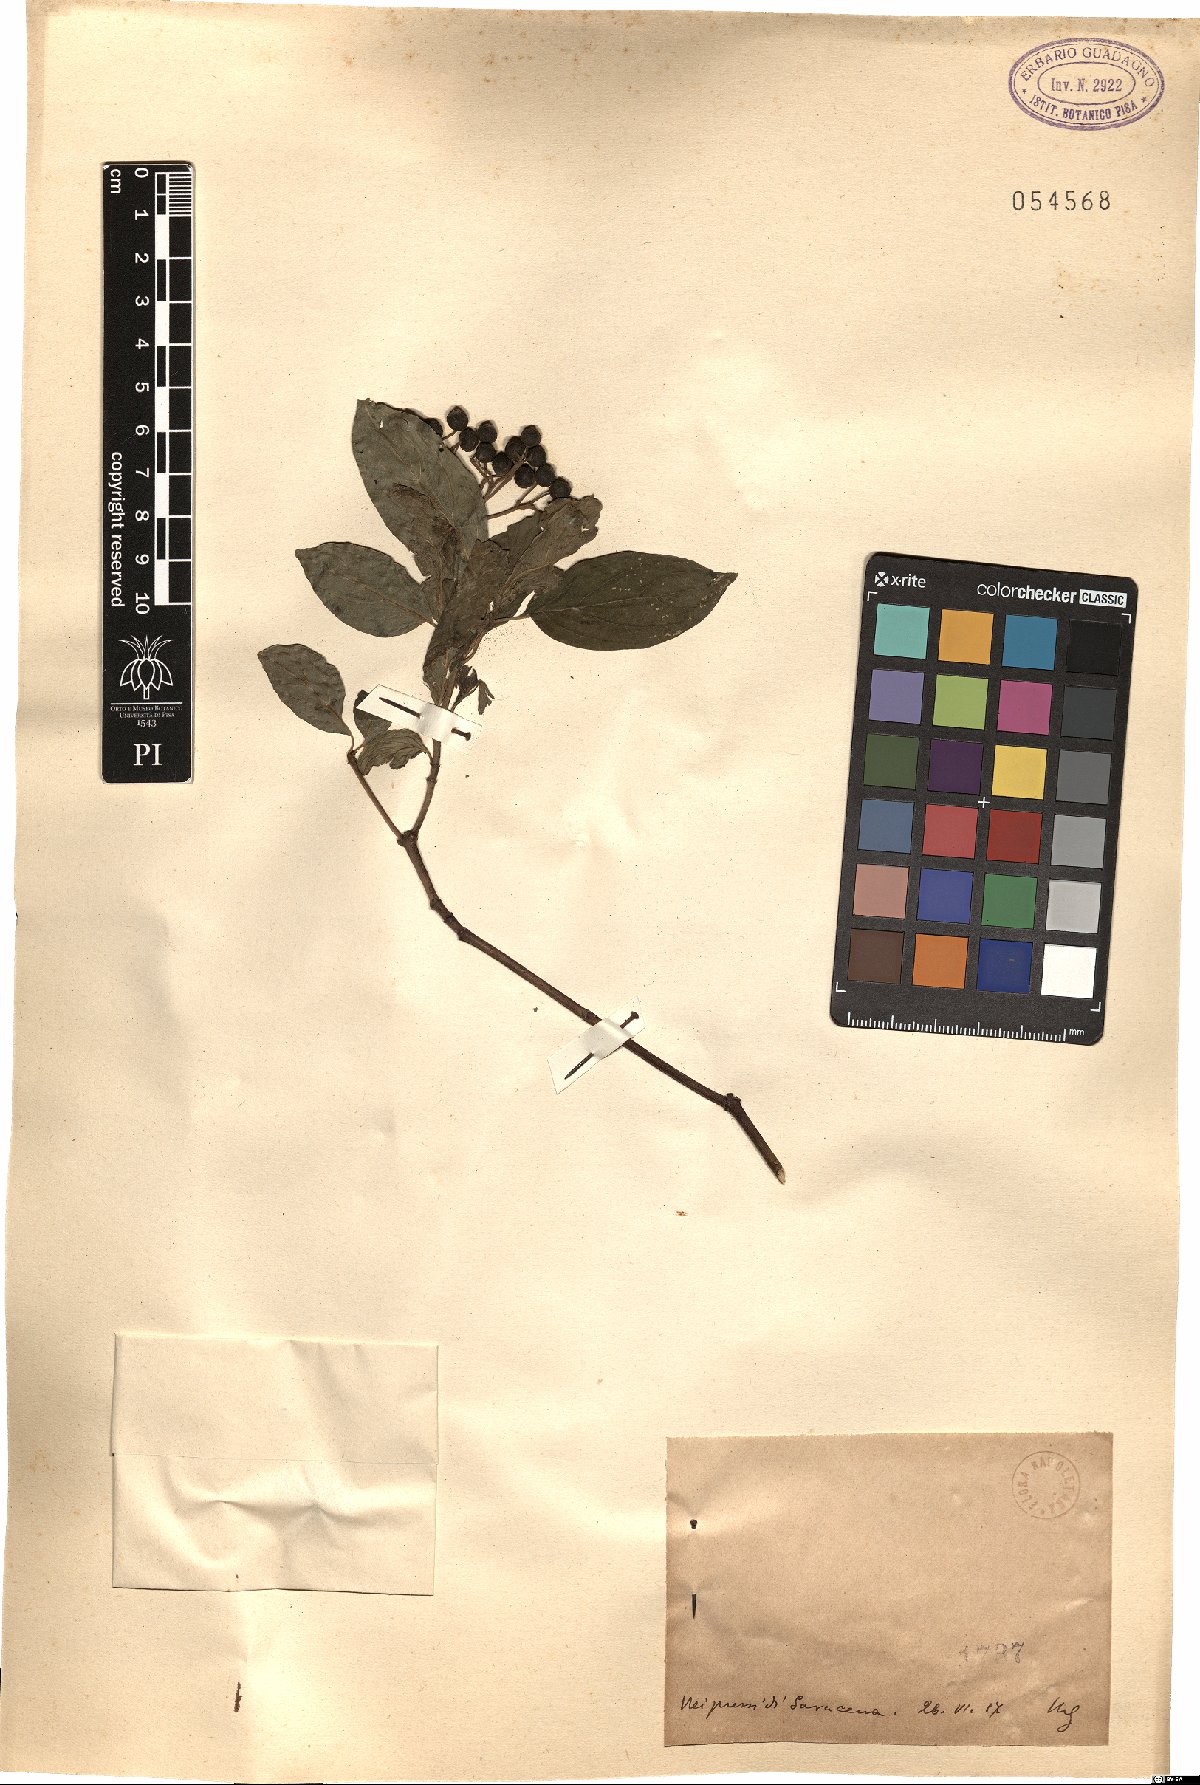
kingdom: Plantae
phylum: Tracheophyta
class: Magnoliopsida
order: Cornales
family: Cornaceae
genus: Cornus
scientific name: Cornus
